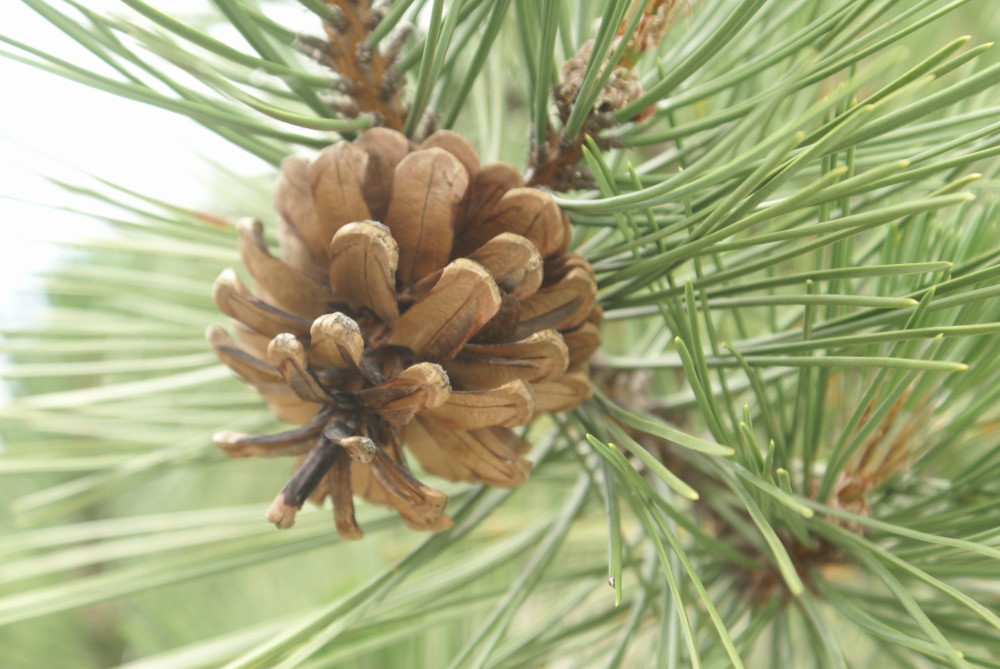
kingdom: Plantae
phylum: Tracheophyta
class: Pinopsida
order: Pinales
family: Pinaceae
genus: Pinus
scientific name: Pinus sylvestris
